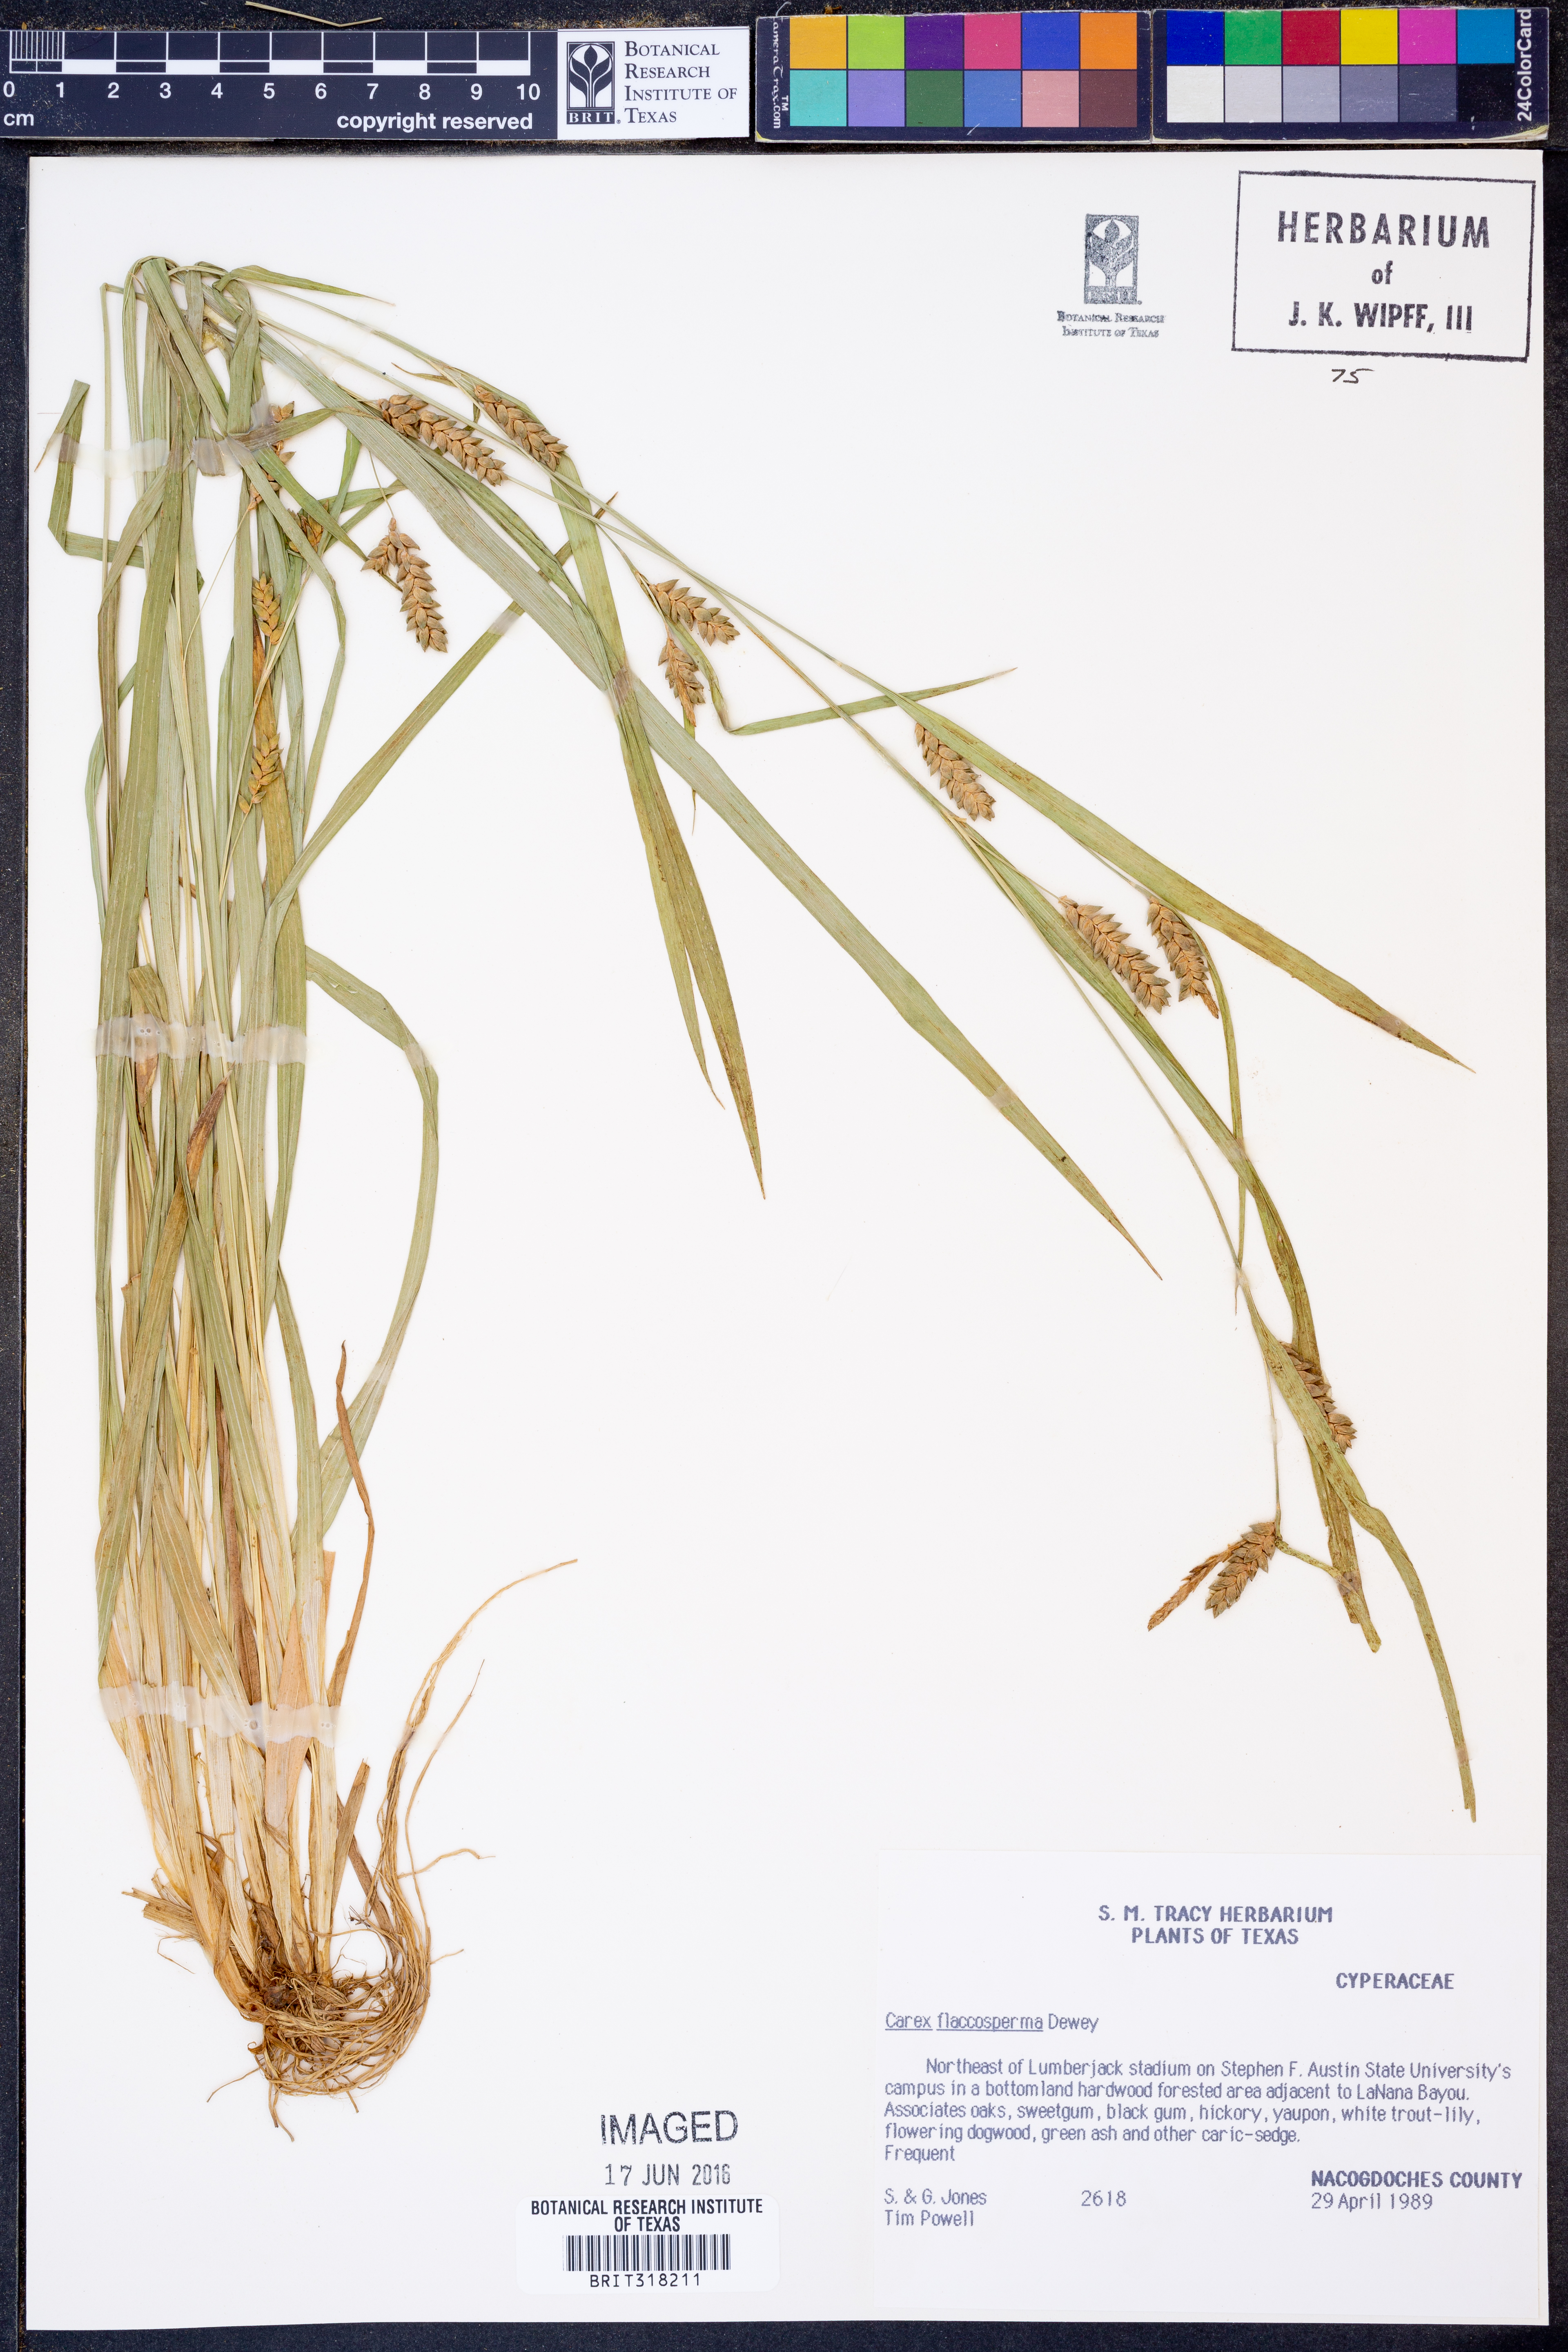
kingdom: Plantae
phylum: Tracheophyta
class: Liliopsida
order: Poales
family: Cyperaceae
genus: Carex
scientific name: Carex flaccosperma
